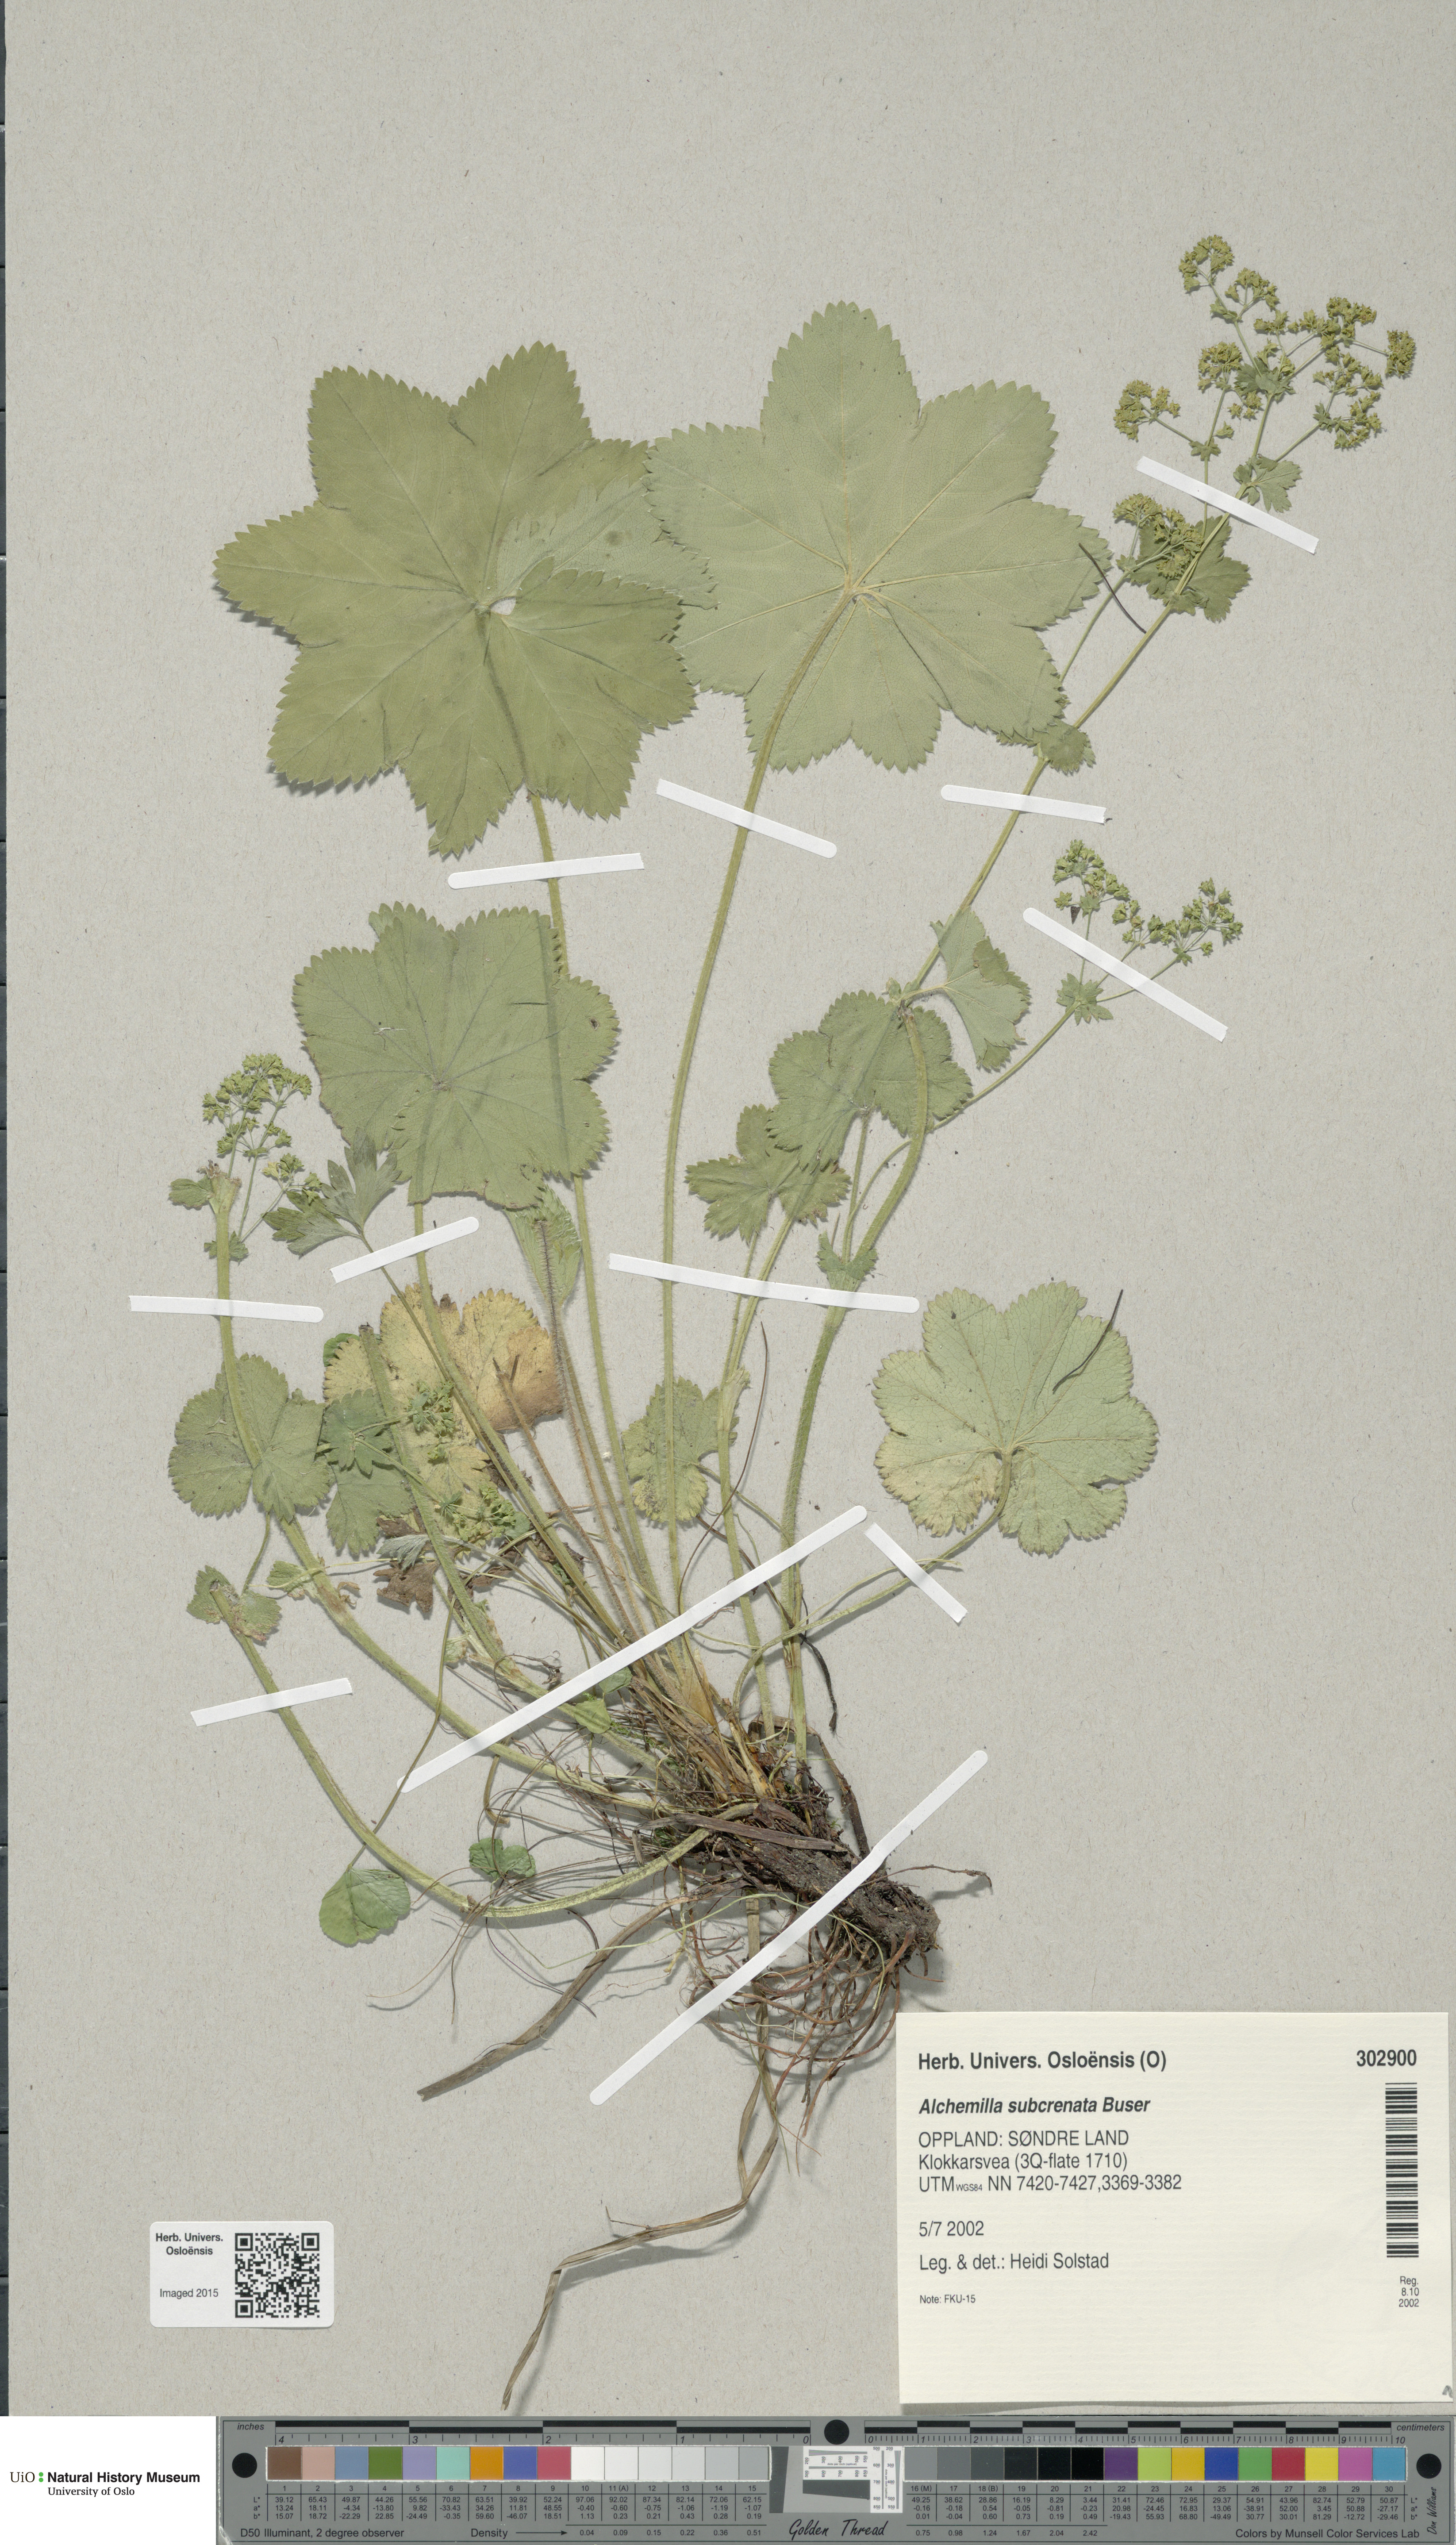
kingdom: Plantae
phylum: Tracheophyta
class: Magnoliopsida
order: Rosales
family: Rosaceae
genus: Alchemilla
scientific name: Alchemilla subcrenata
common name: Broadtooth lady's mantle
